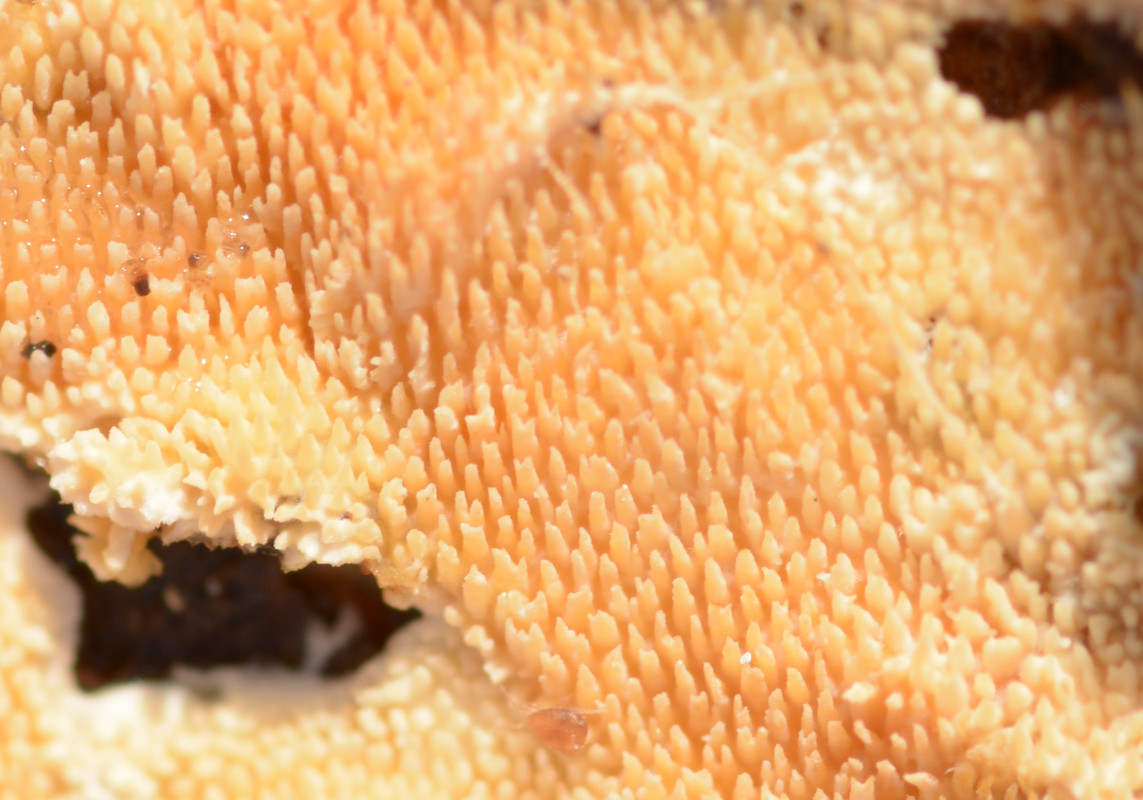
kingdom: Fungi
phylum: Basidiomycota
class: Agaricomycetes
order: Polyporales
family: Steccherinaceae
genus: Steccherinum
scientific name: Steccherinum ochraceum
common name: almindelig skønpig
